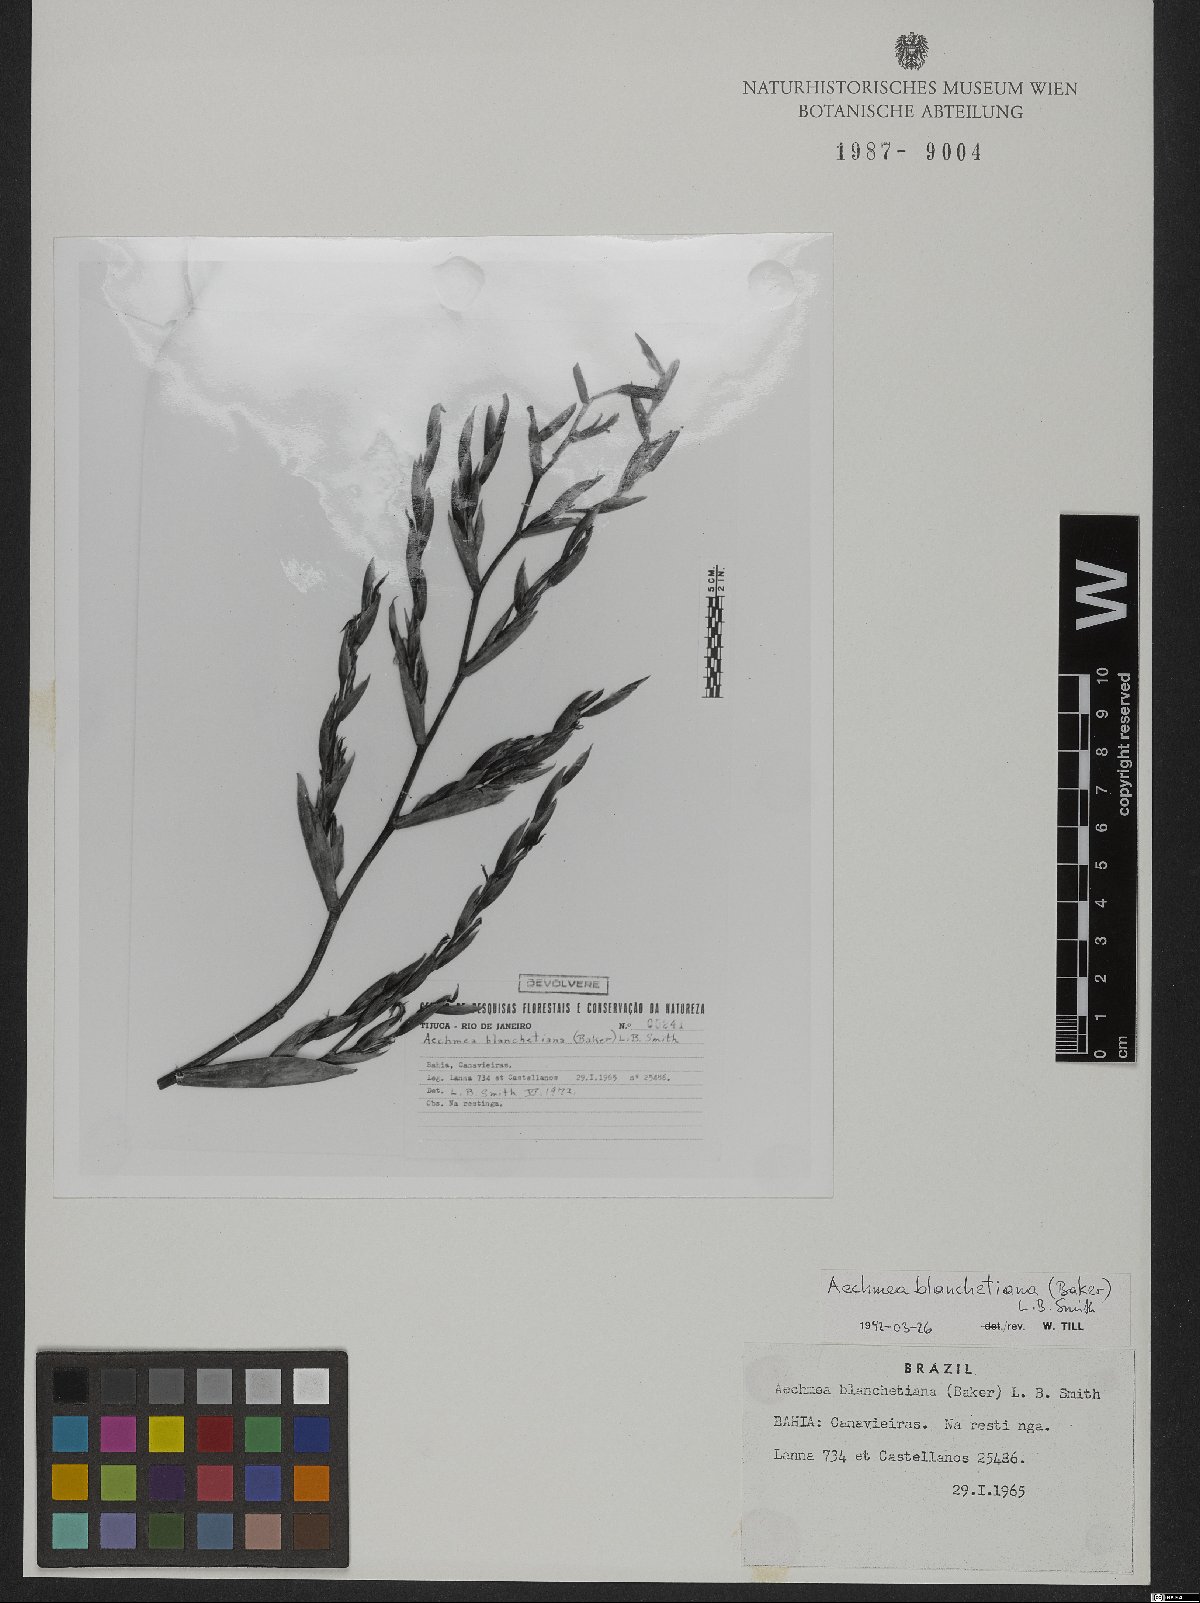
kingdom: Plantae
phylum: Tracheophyta
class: Liliopsida
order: Poales
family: Bromeliaceae
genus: Aechmea
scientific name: Aechmea blanchetiana
